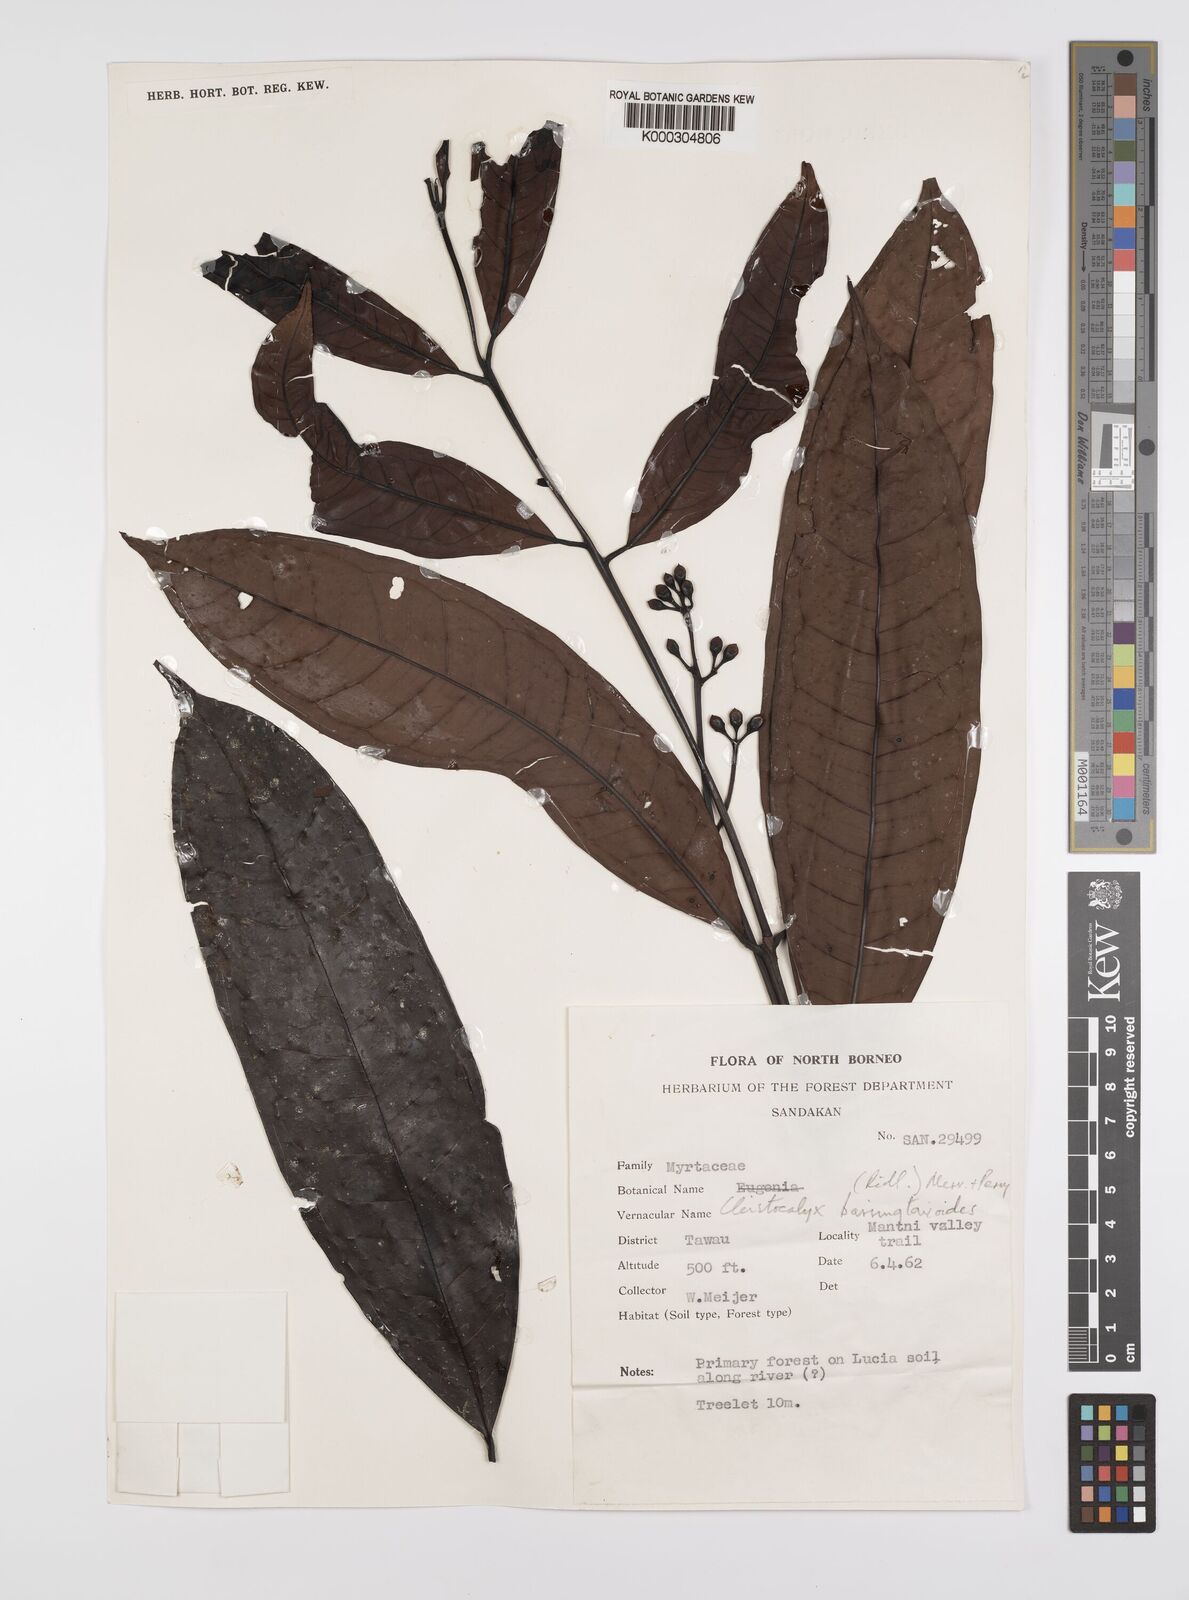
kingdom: Plantae
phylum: Tracheophyta
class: Magnoliopsida
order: Myrtales
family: Myrtaceae
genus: Syzygium
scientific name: Syzygium barringtonioides
